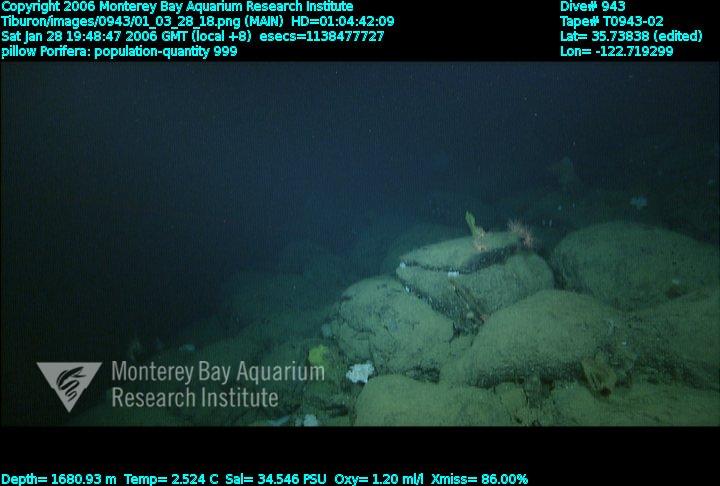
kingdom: Animalia
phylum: Porifera
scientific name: Porifera
